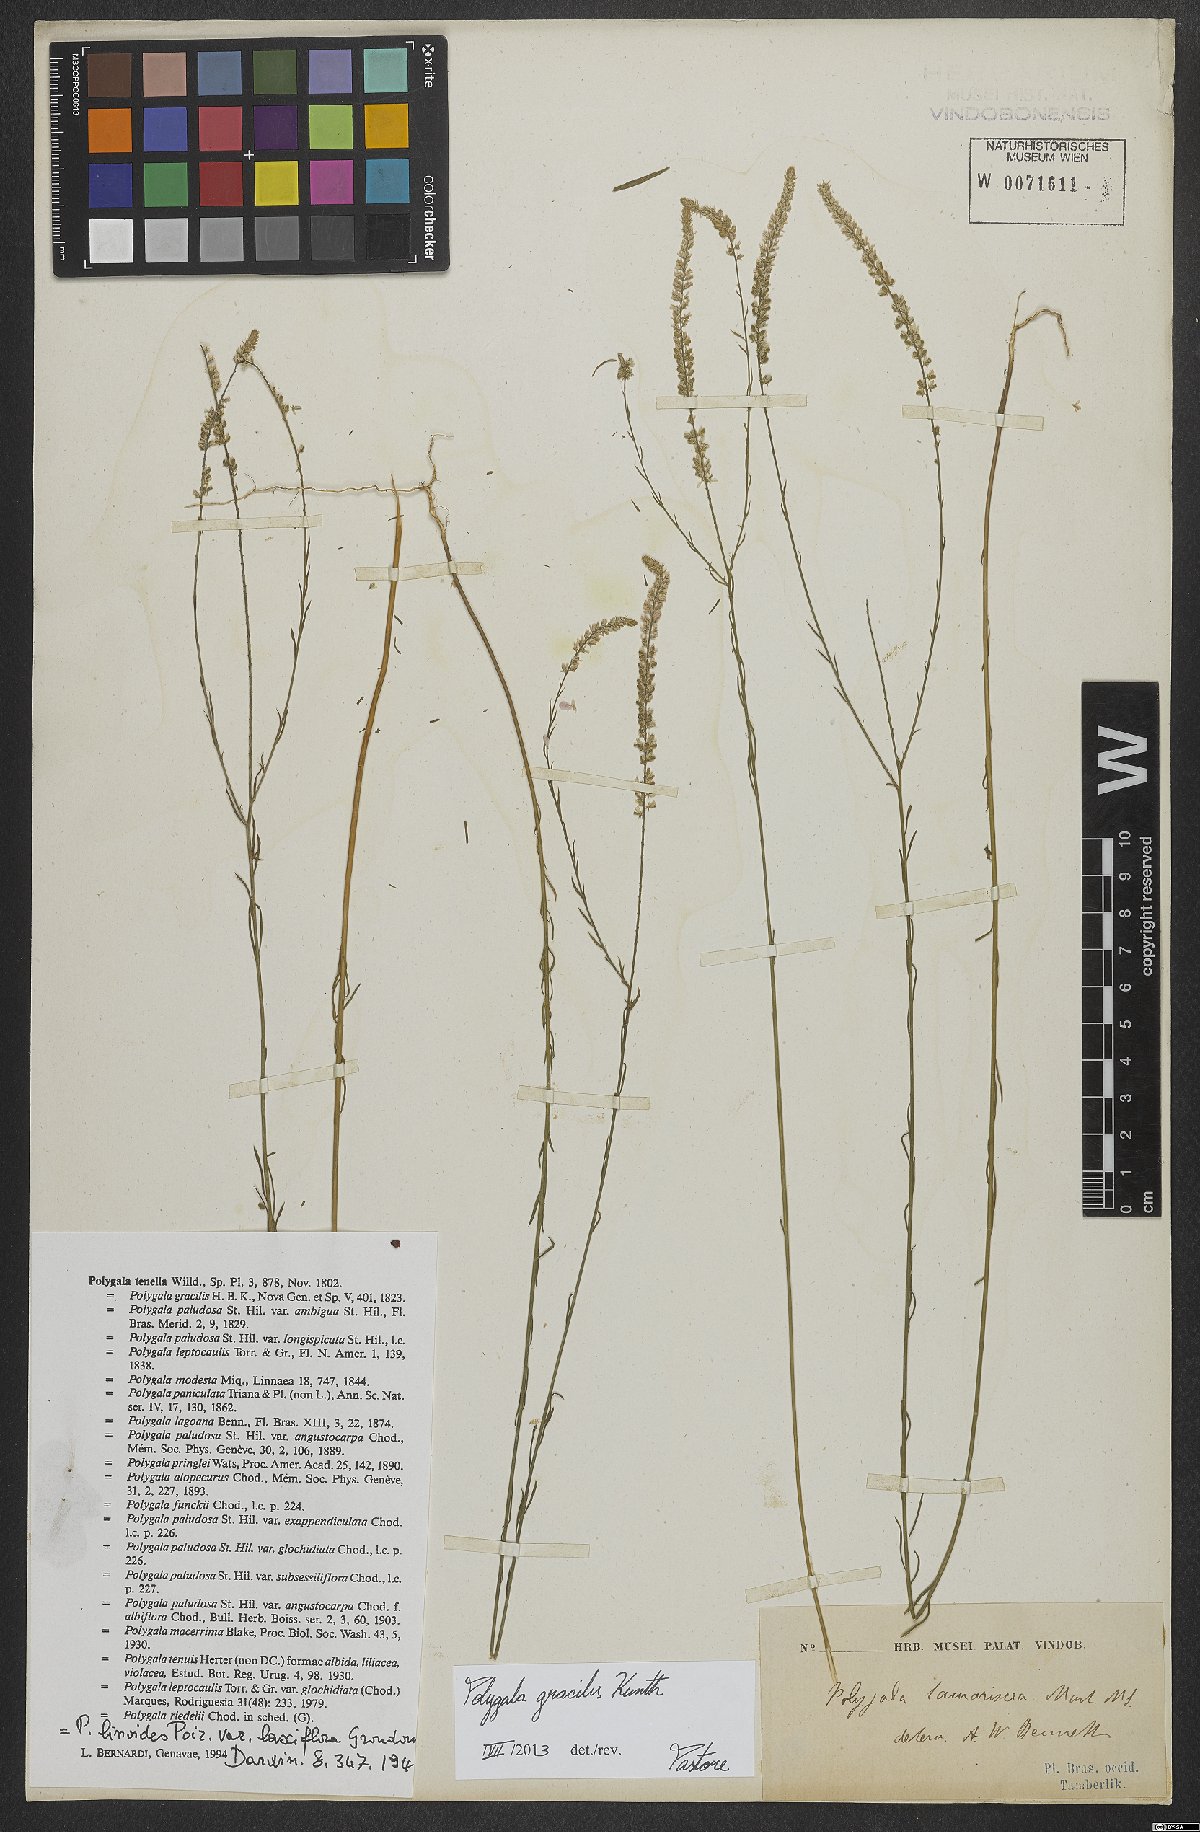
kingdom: Plantae
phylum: Tracheophyta
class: Magnoliopsida
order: Fabales
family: Polygalaceae
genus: Polygala
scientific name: Polygala gracilis
